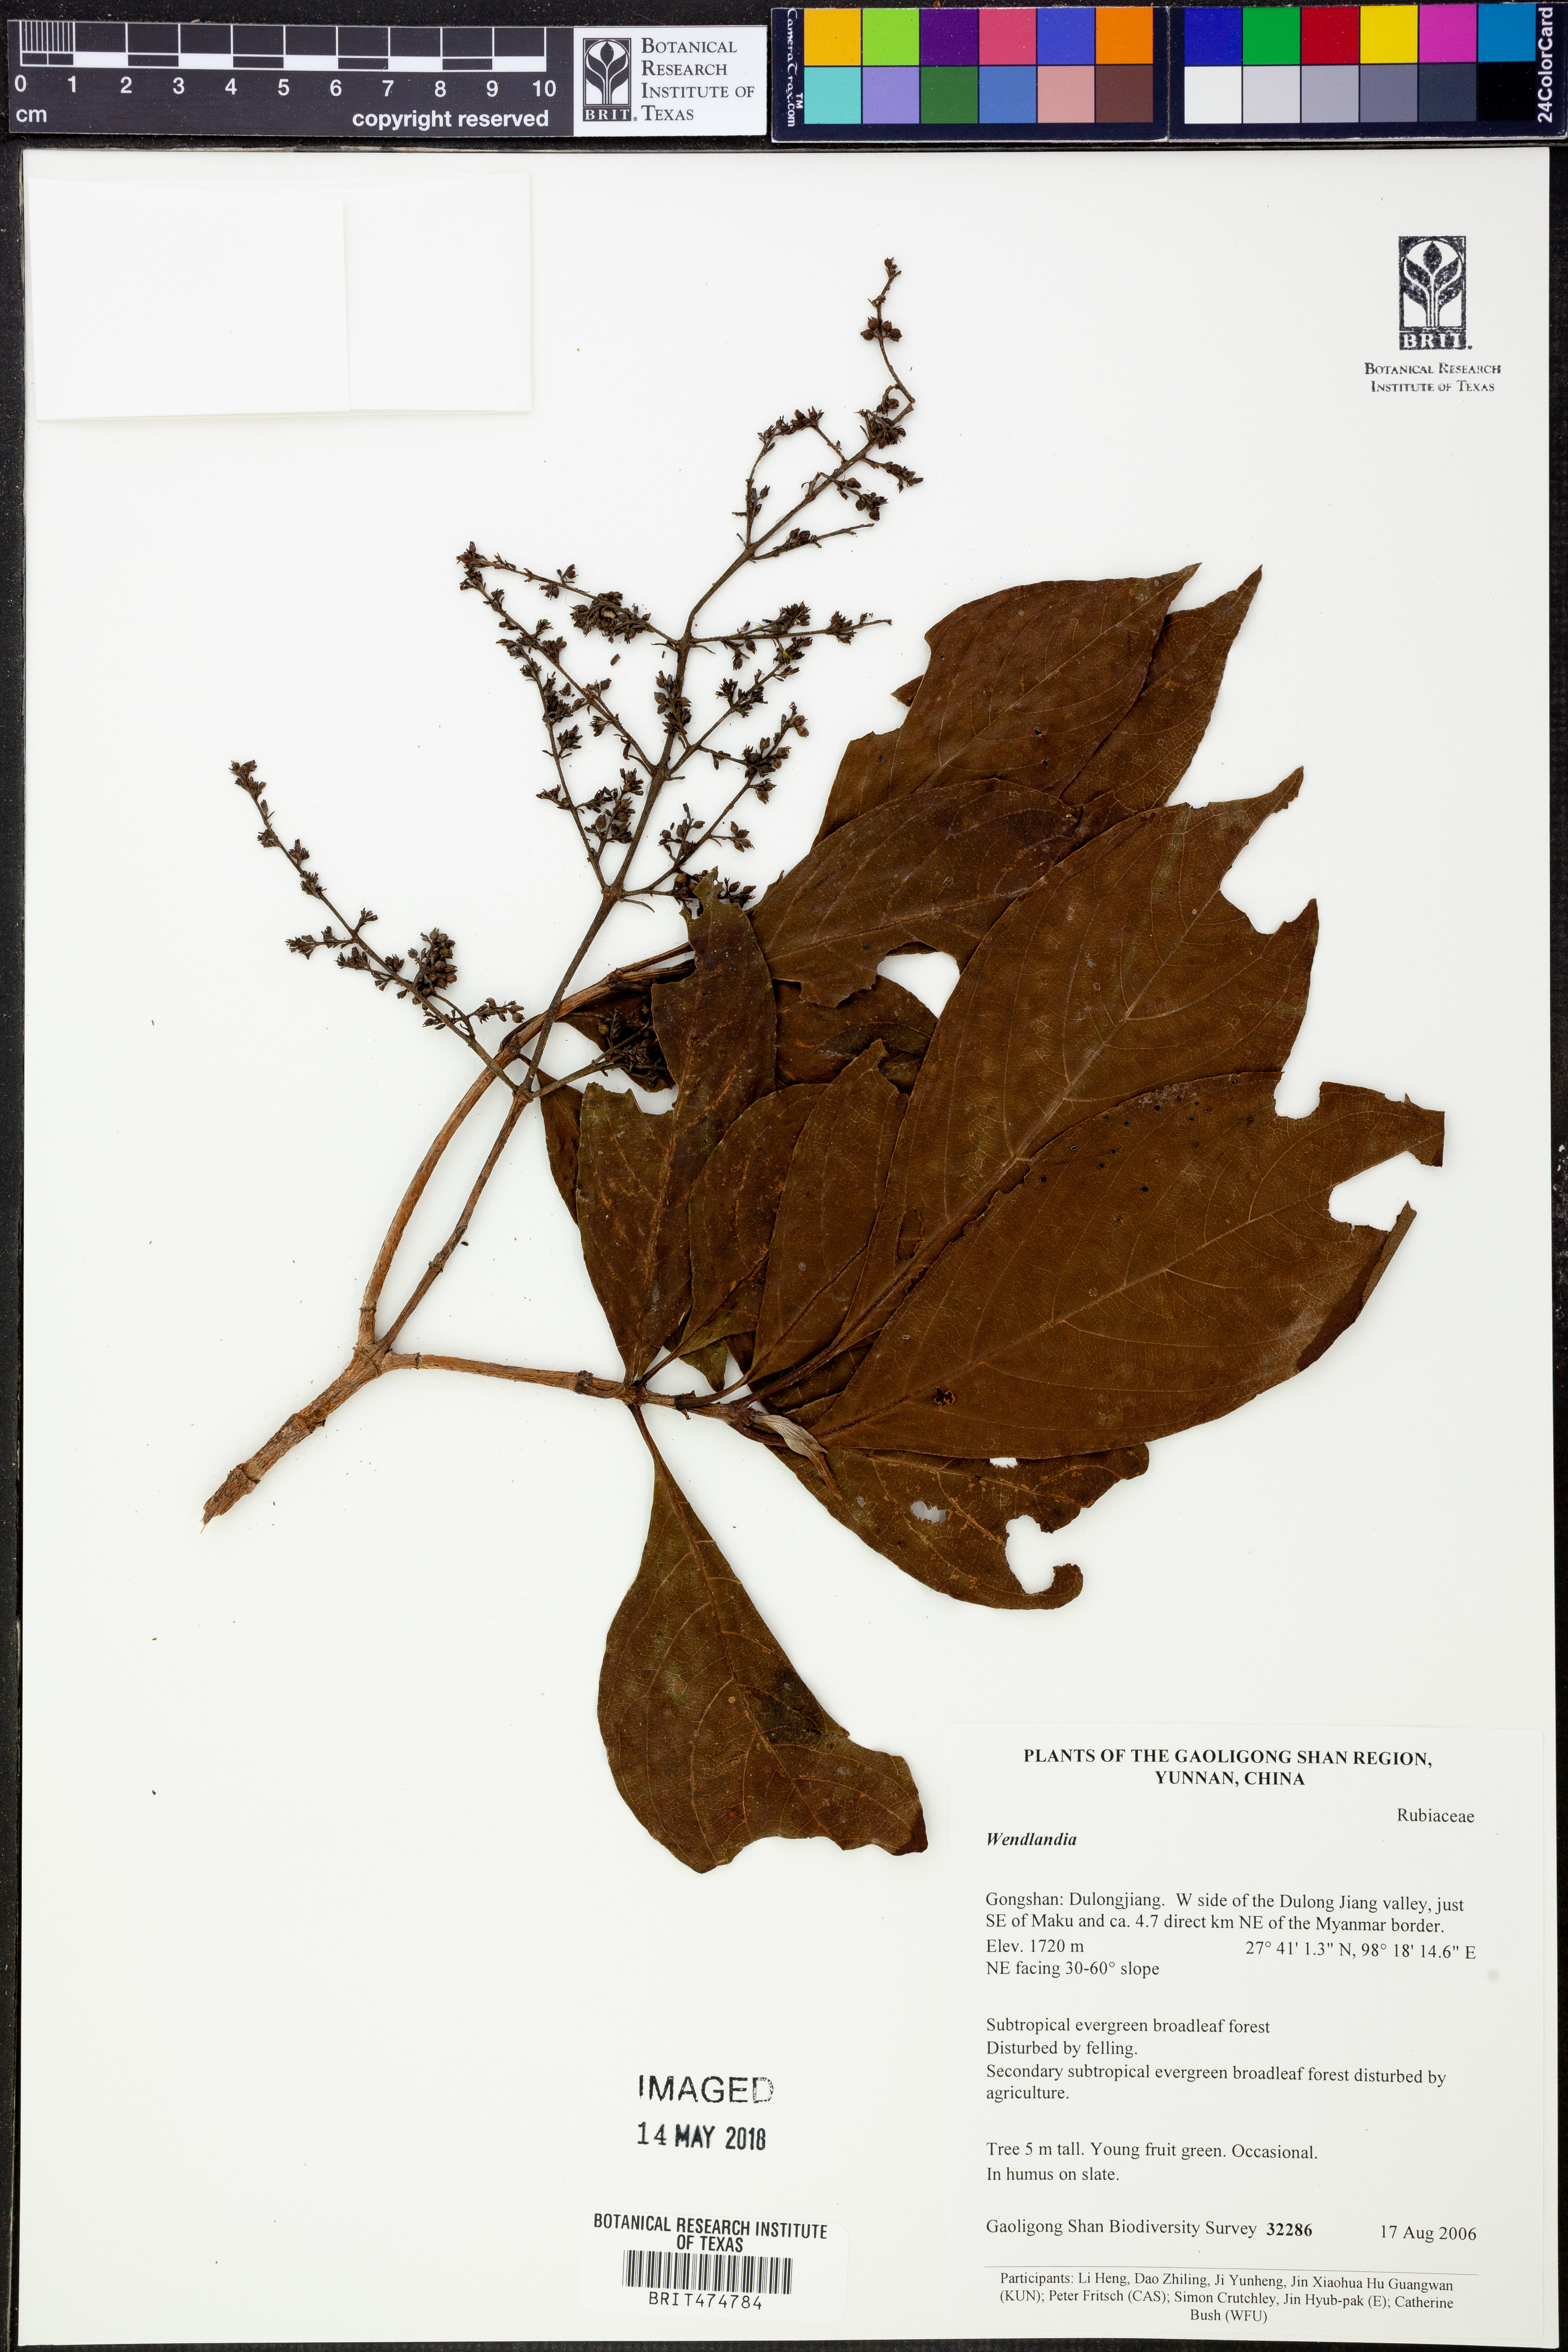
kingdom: Plantae
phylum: Tracheophyta
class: Magnoliopsida
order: Gentianales
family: Rubiaceae
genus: Wendlandia
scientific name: Wendlandia
